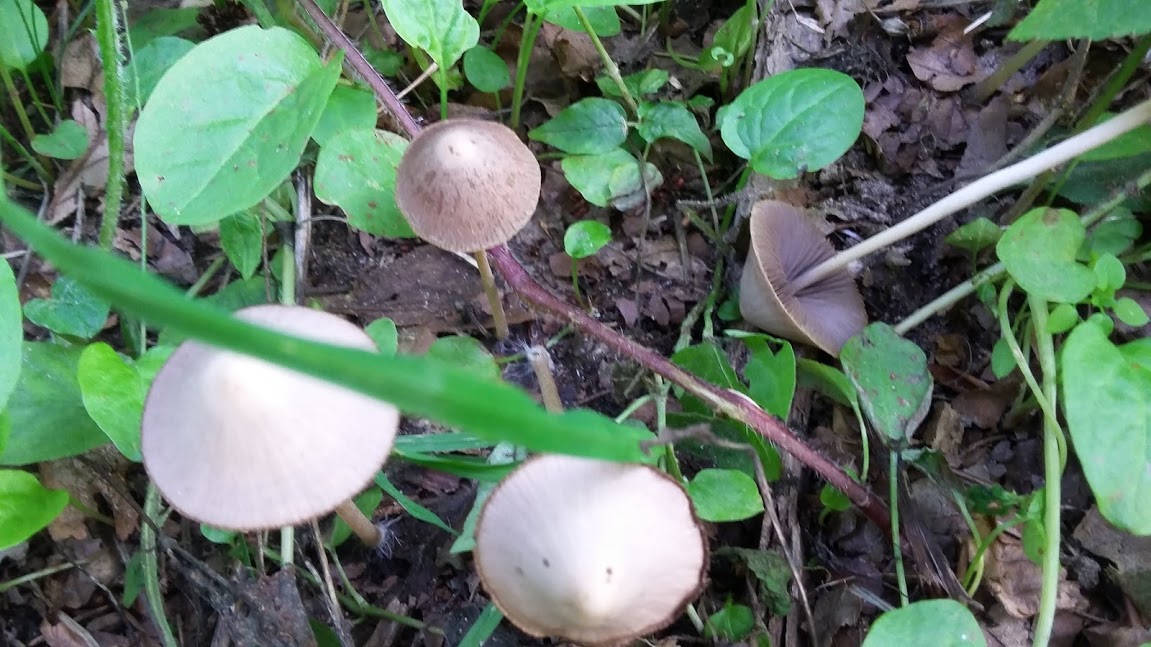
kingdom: Fungi
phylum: Basidiomycota
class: Agaricomycetes
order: Agaricales
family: Psathyrellaceae
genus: Psathyrella
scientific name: Psathyrella
